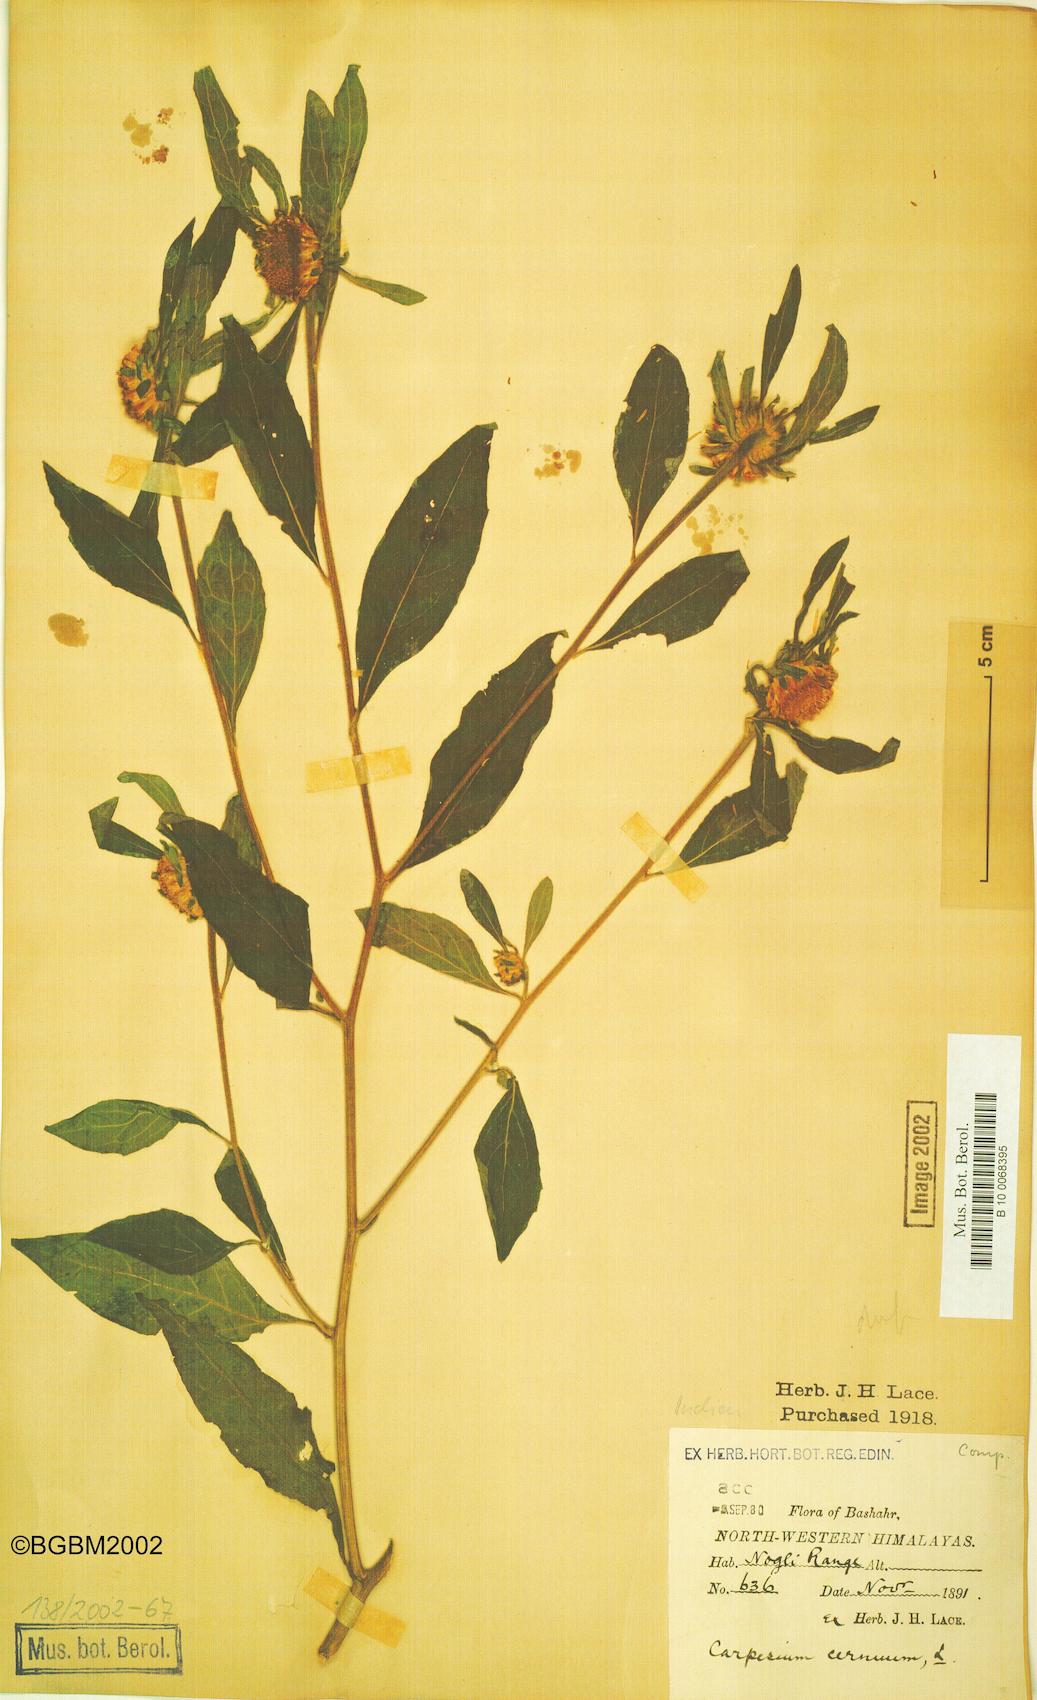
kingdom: Plantae
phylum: Tracheophyta
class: Magnoliopsida
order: Asterales
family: Asteraceae
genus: Carpesium
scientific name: Carpesium cernuum
